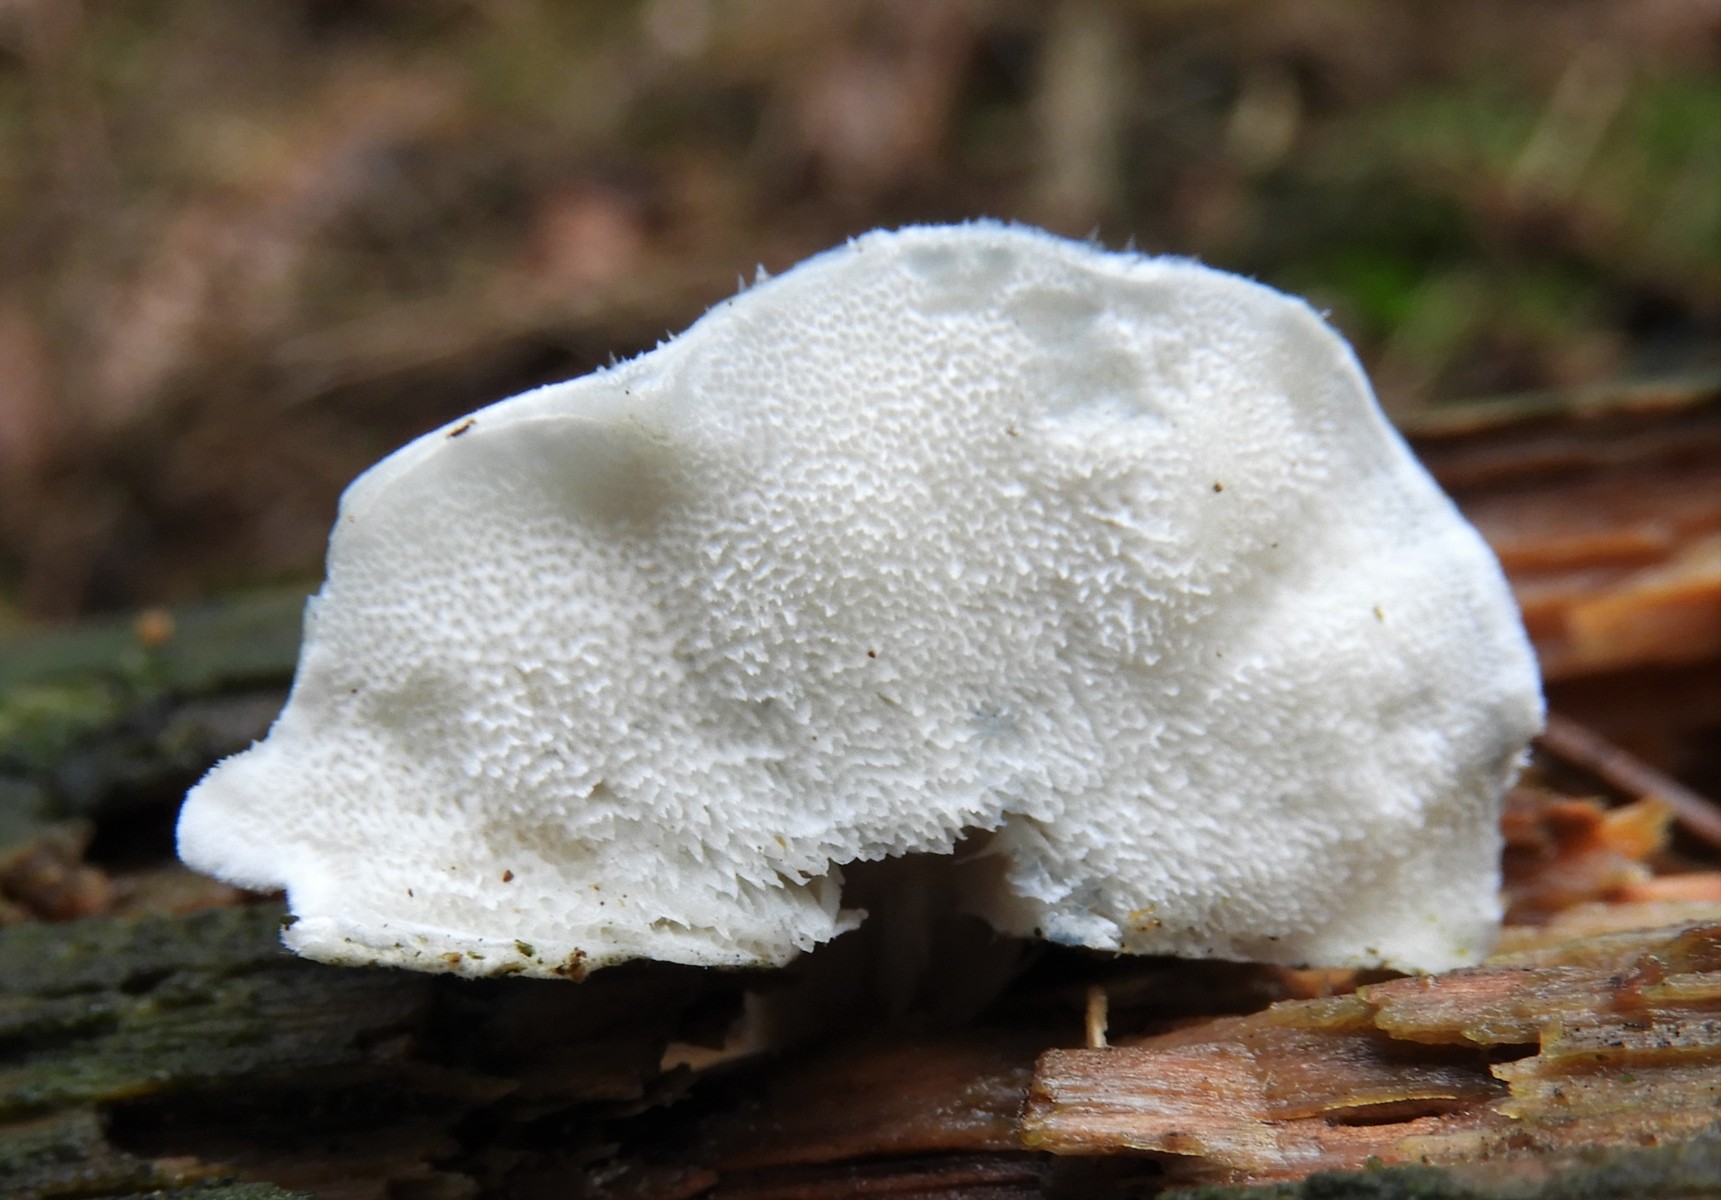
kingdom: Fungi
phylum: Basidiomycota
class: Agaricomycetes
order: Polyporales
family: Polyporaceae
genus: Cyanosporus
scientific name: Cyanosporus caesius
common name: blålig kødporesvamp
